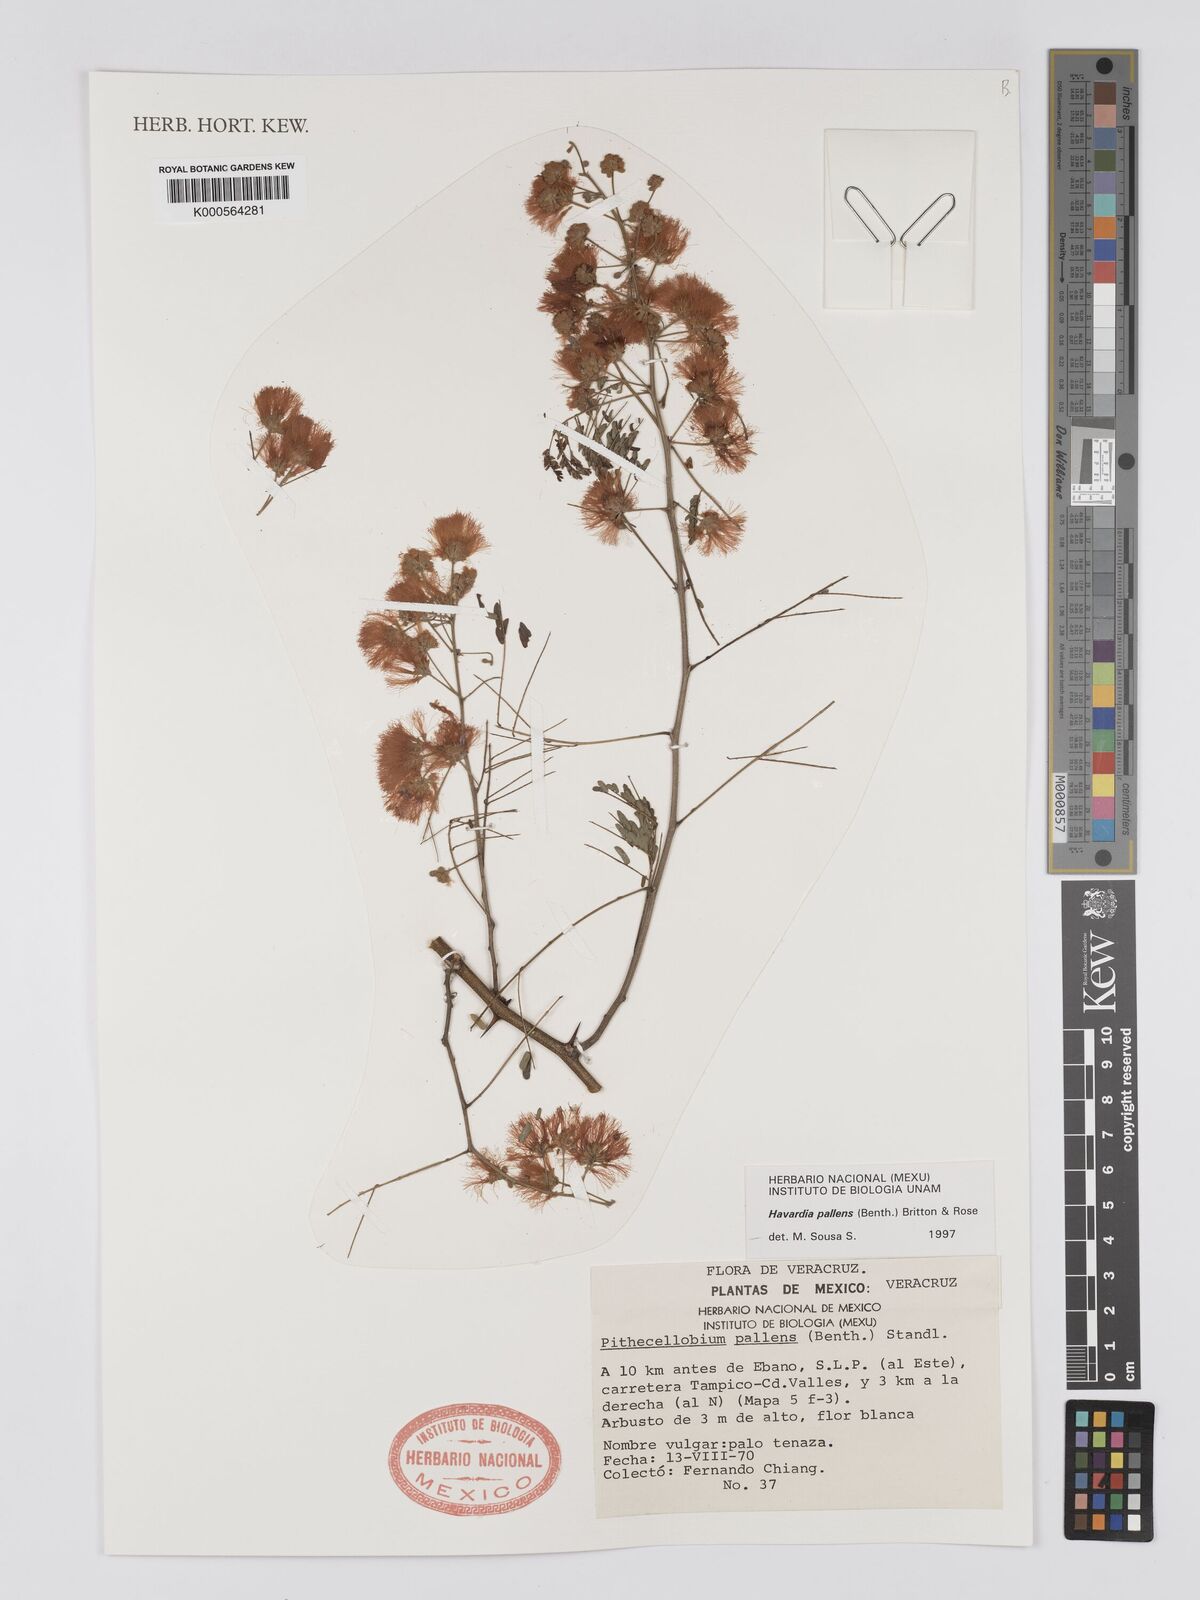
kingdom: Plantae
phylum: Tracheophyta
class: Magnoliopsida
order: Fabales
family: Fabaceae
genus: Havardia
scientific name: Havardia pallens
